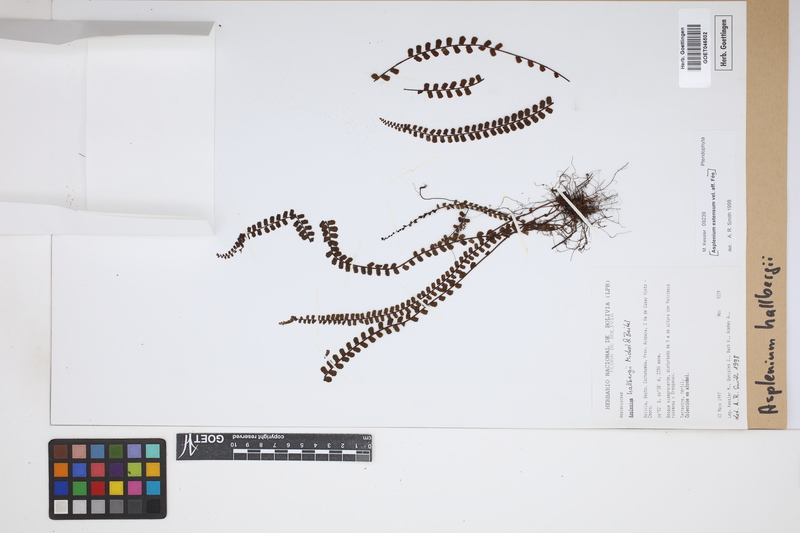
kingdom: Plantae
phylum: Tracheophyta
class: Polypodiopsida
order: Polypodiales
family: Aspleniaceae
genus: Asplenium
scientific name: Asplenium hallbergii
